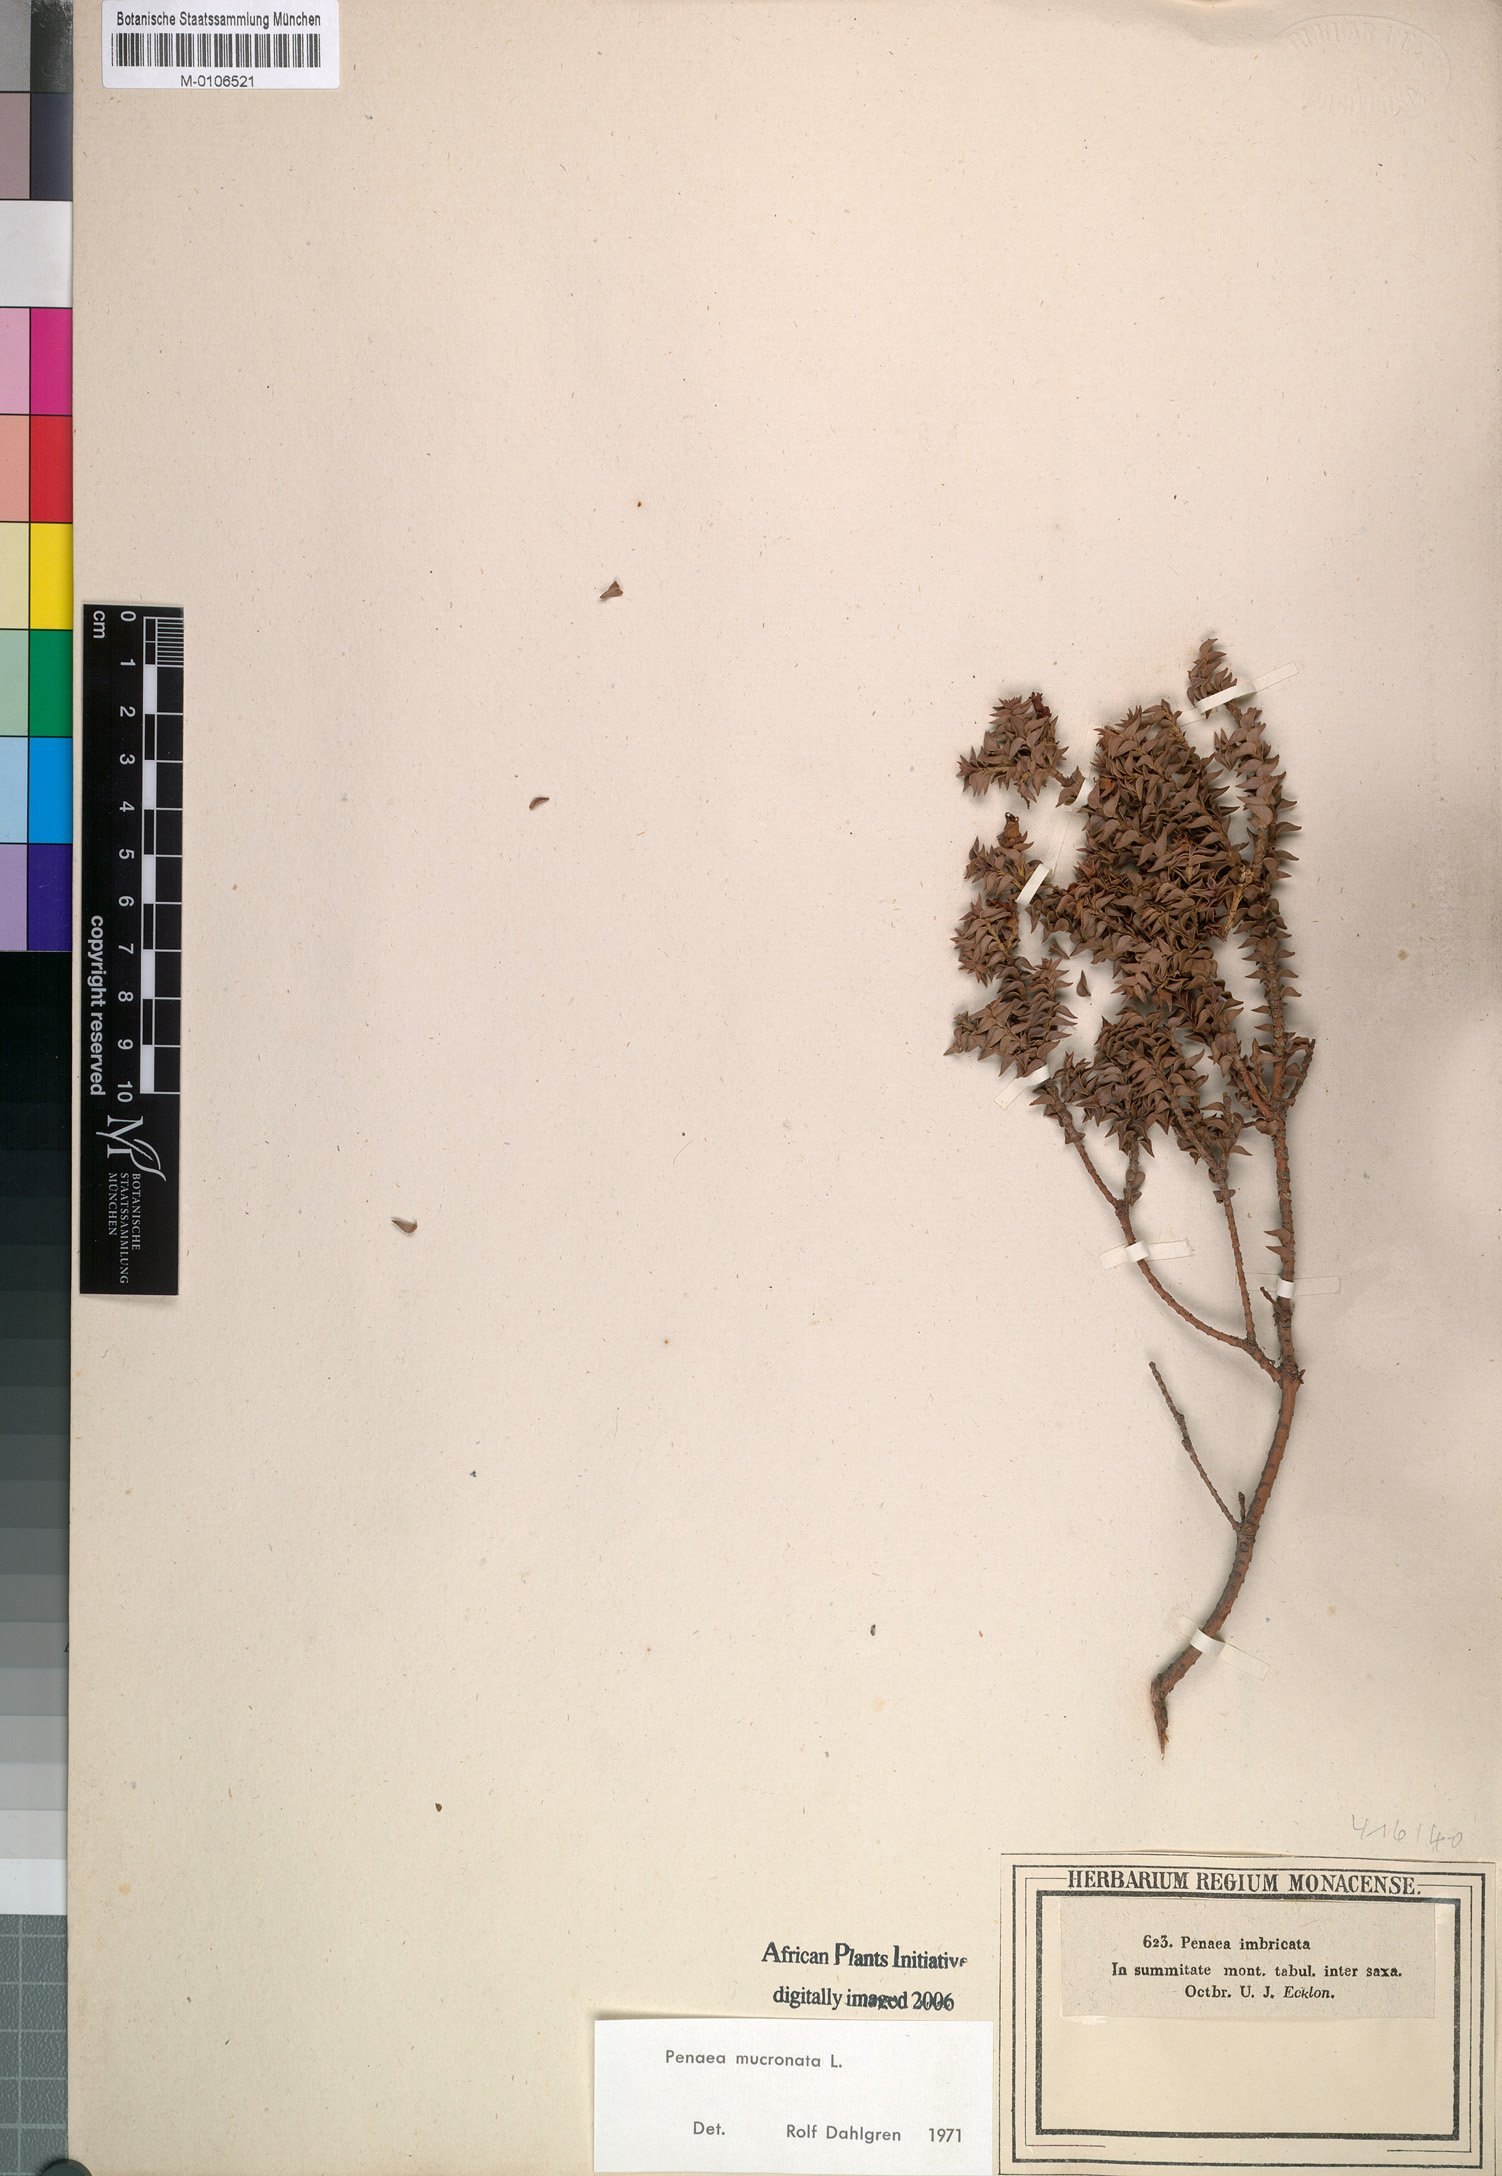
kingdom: Plantae
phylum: Tracheophyta
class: Magnoliopsida
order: Myrtales
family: Penaeaceae
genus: Penaea
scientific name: Penaea mucronata
